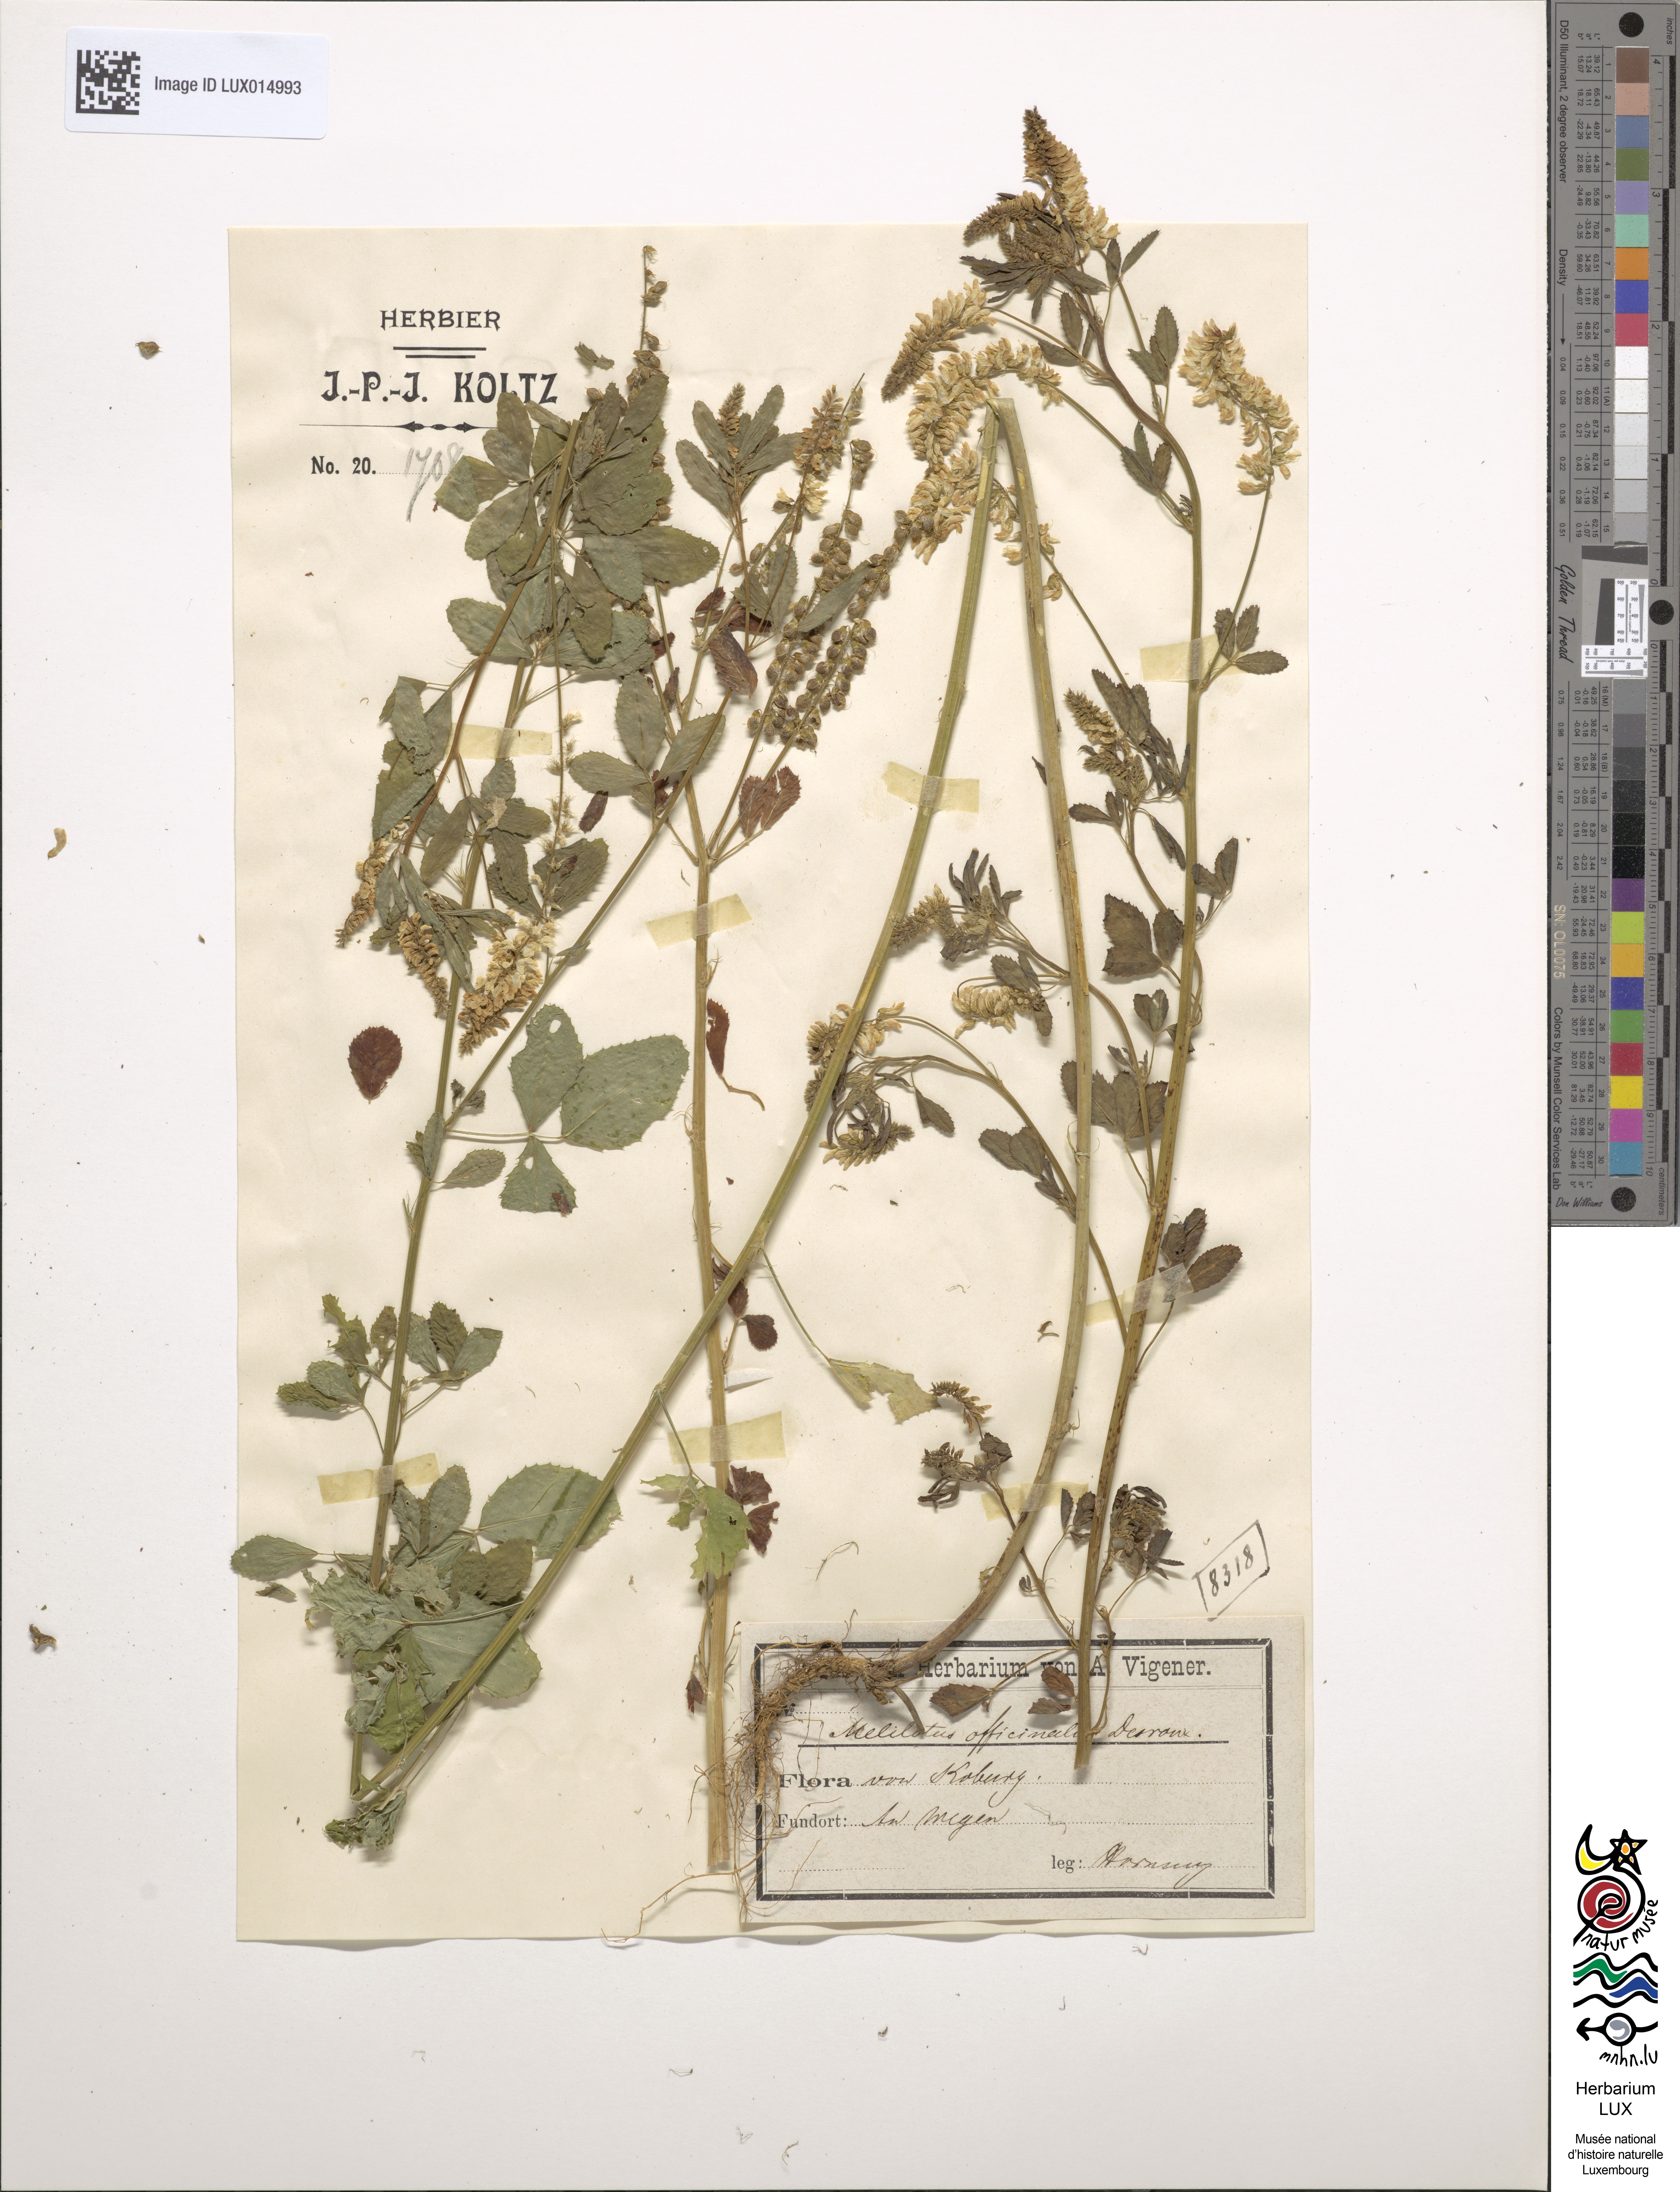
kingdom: Plantae
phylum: Tracheophyta
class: Magnoliopsida
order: Fabales
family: Fabaceae
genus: Melilotus
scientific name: Melilotus officinalis
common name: Sweetclover
